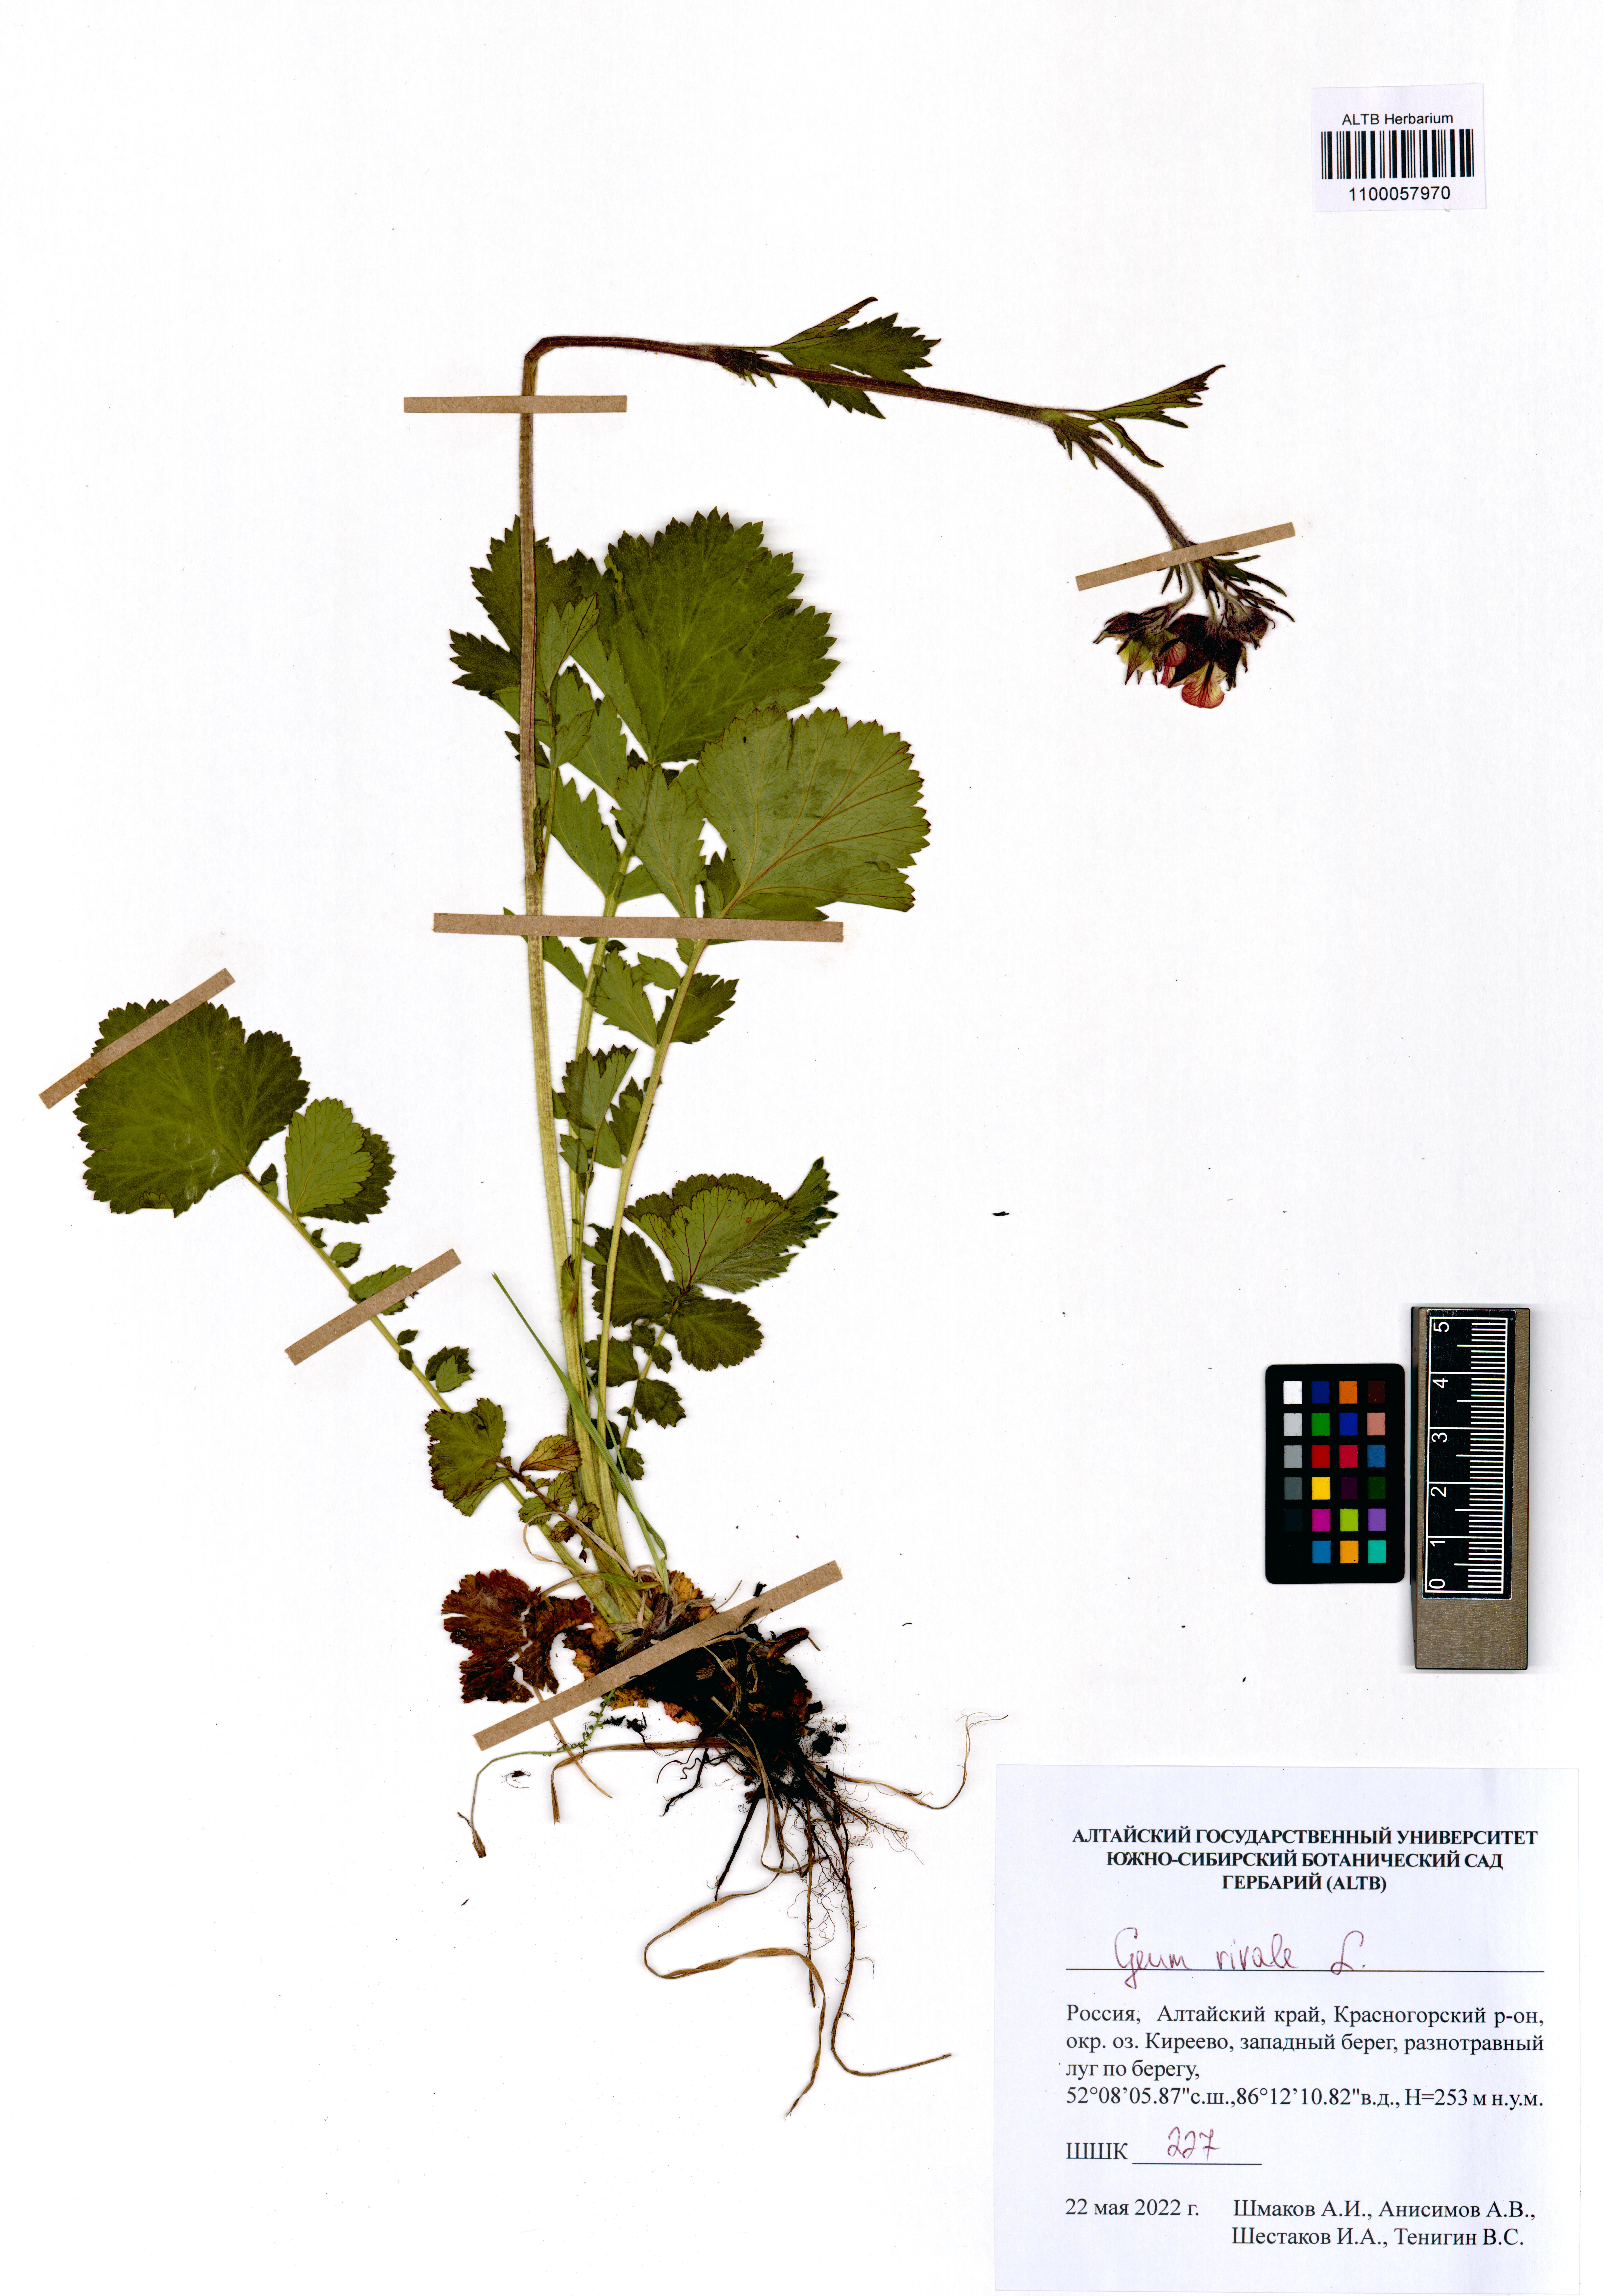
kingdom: Plantae
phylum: Tracheophyta
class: Magnoliopsida
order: Rosales
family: Rosaceae
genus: Geum
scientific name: Geum rivale
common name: Water avens
